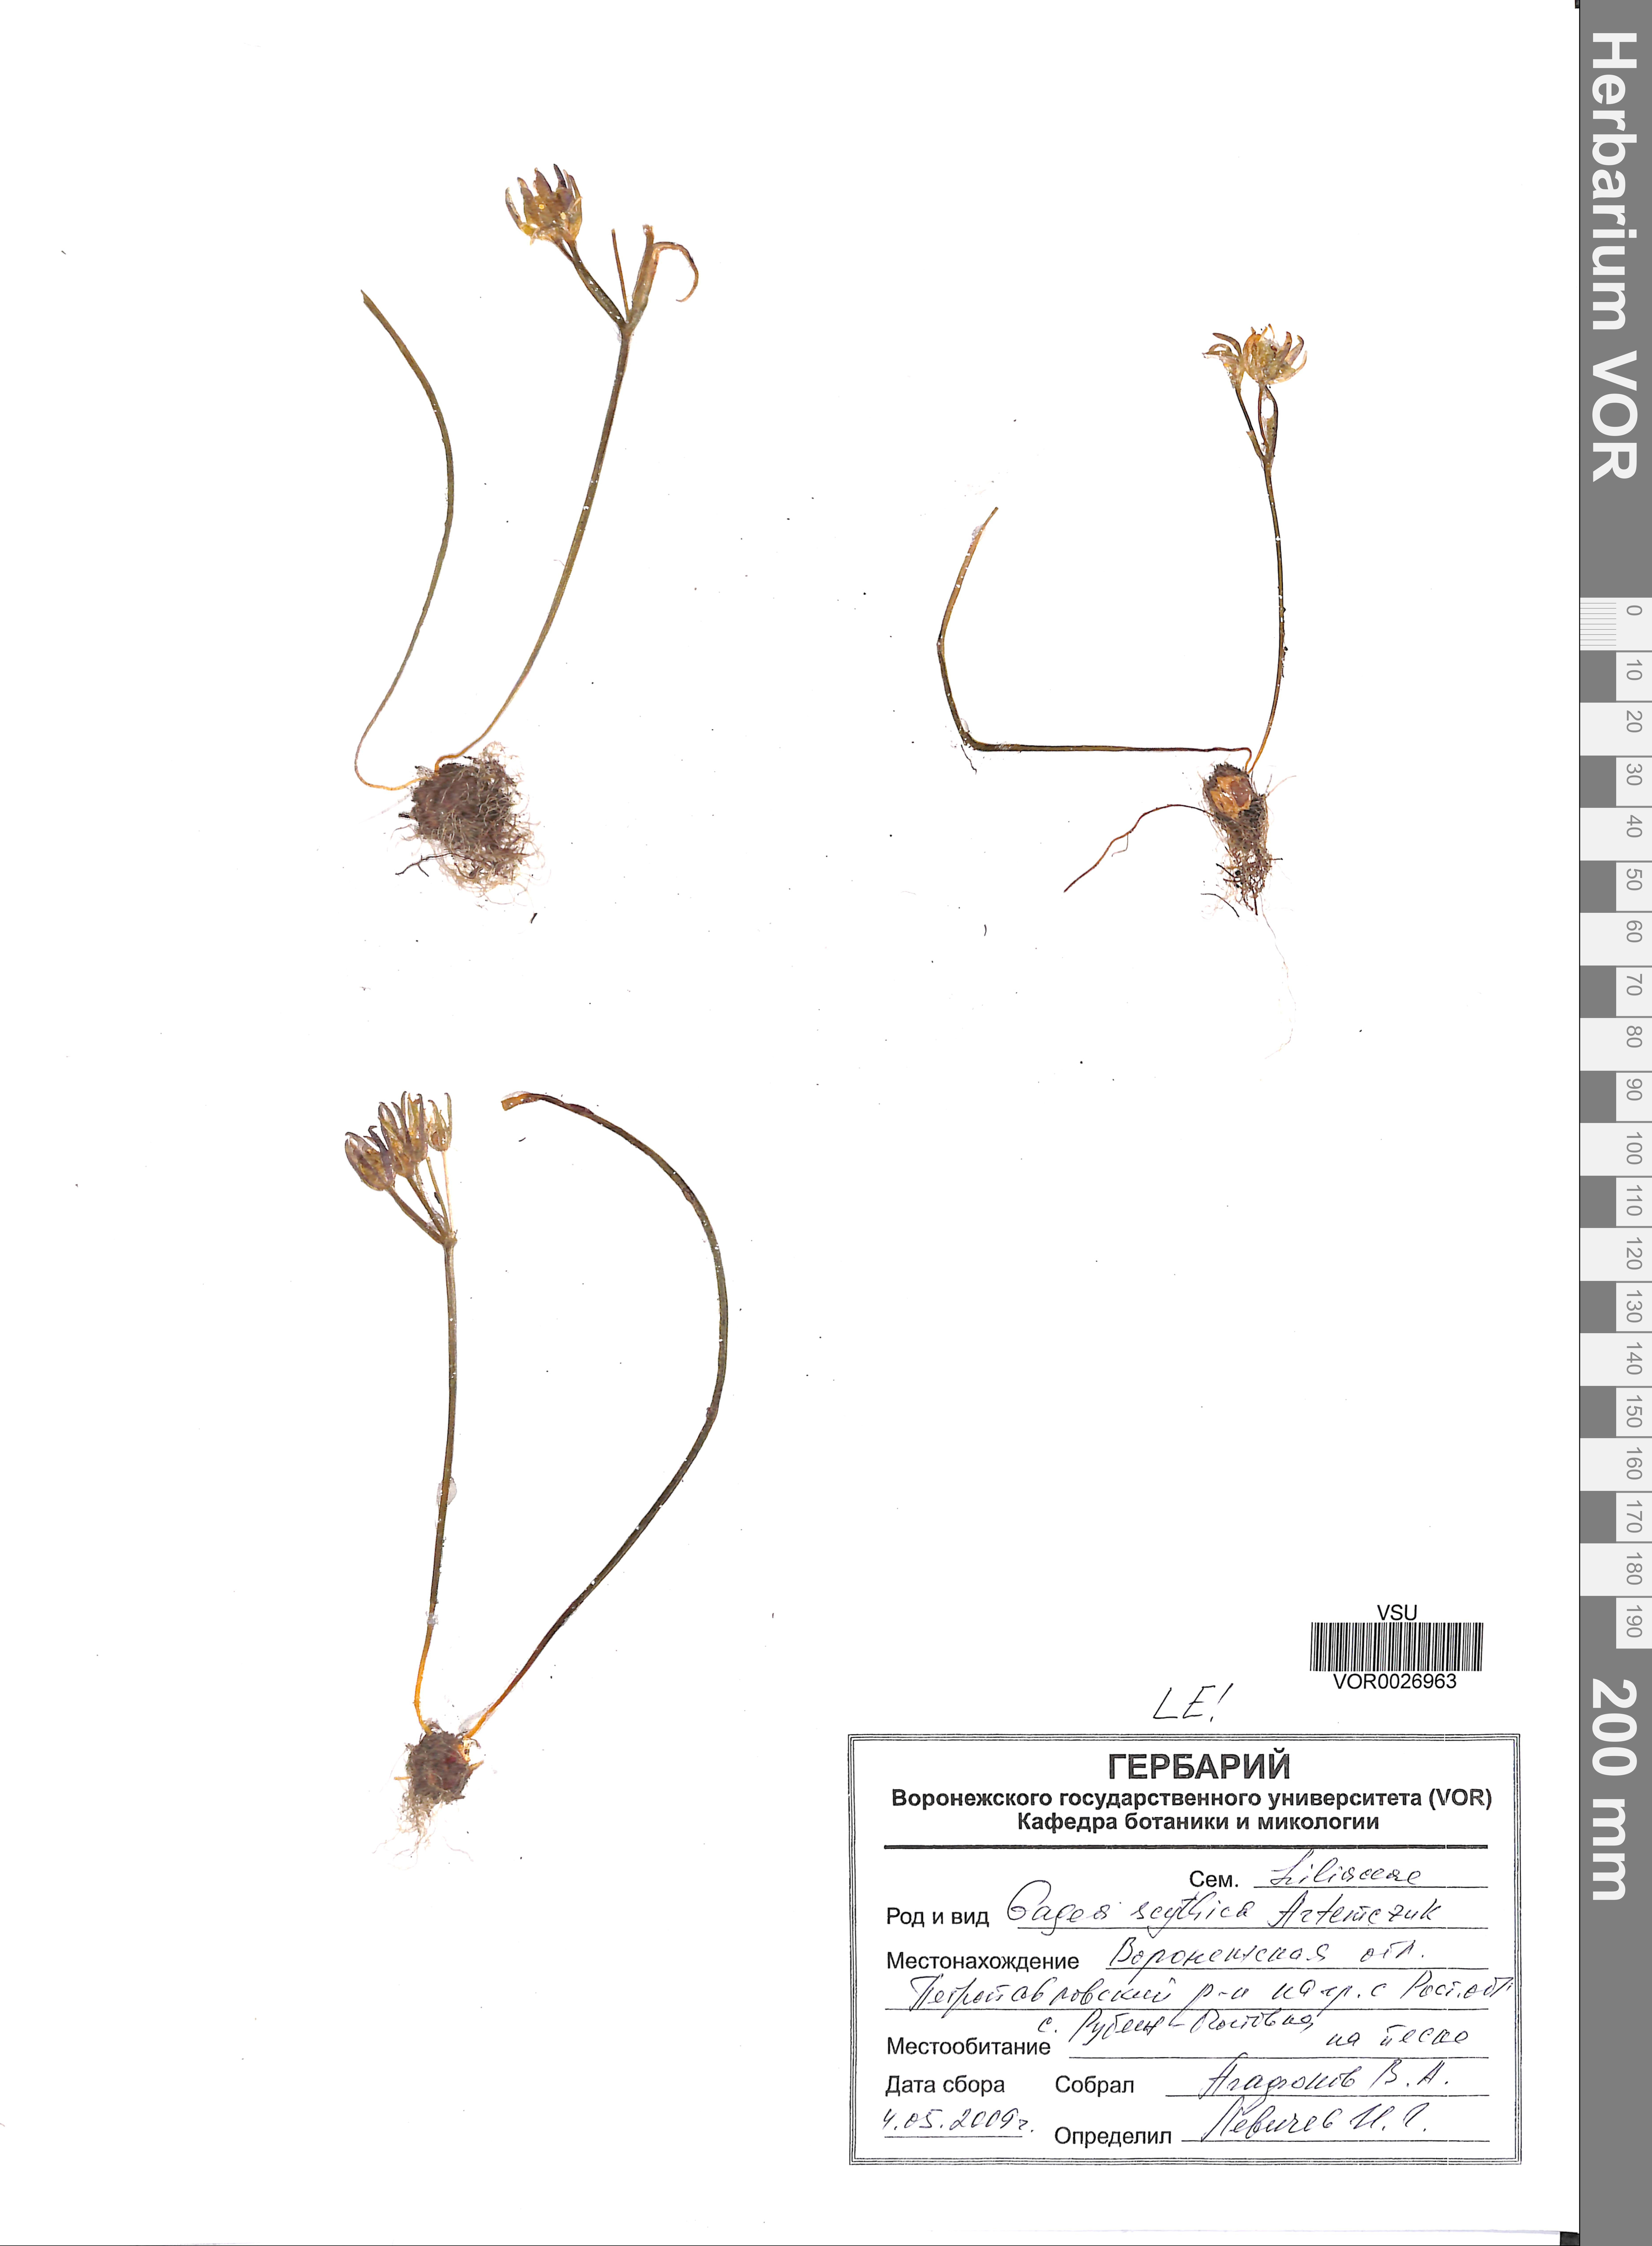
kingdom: Plantae
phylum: Tracheophyta
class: Liliopsida
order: Liliales
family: Liliaceae
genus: Gagea
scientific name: Gagea scythica
